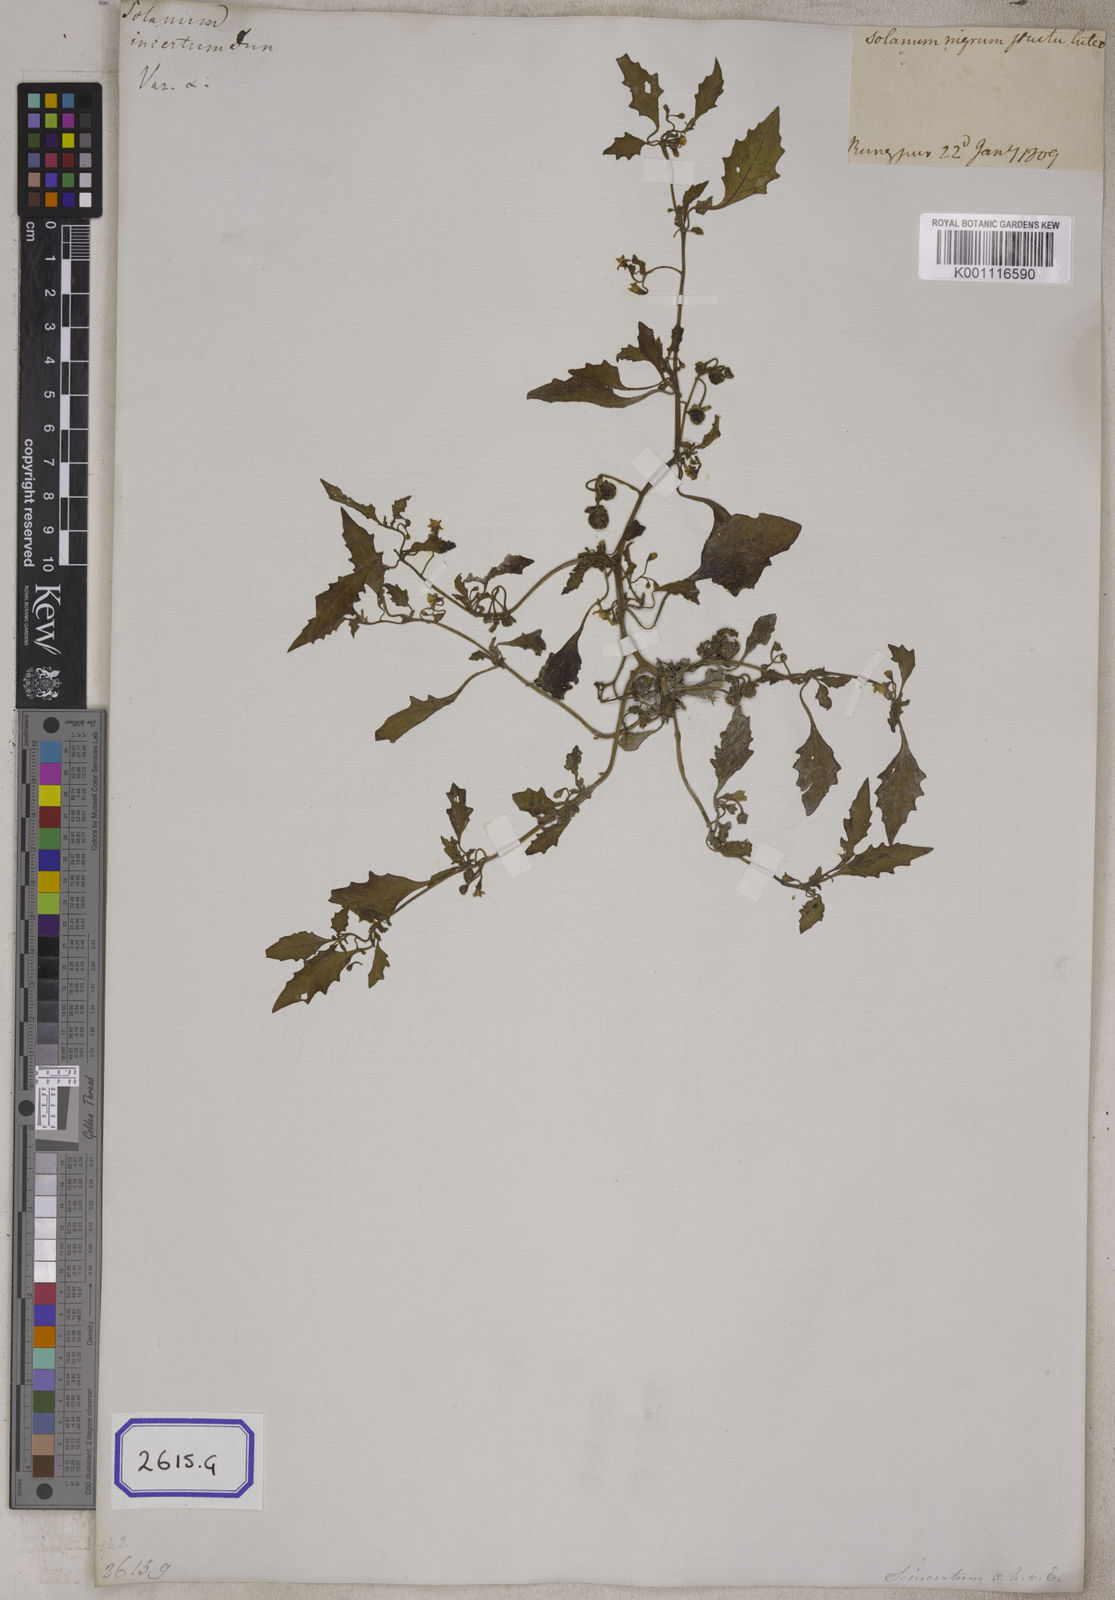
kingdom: Plantae
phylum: Tracheophyta
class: Magnoliopsida
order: Solanales
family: Solanaceae
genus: Solanum
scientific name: Solanum nigrum
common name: Black nightshade
